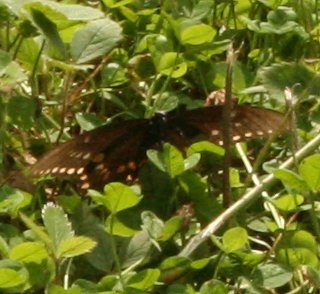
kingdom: Animalia
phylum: Arthropoda
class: Insecta
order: Lepidoptera
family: Papilionidae
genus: Papilio
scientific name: Papilio
